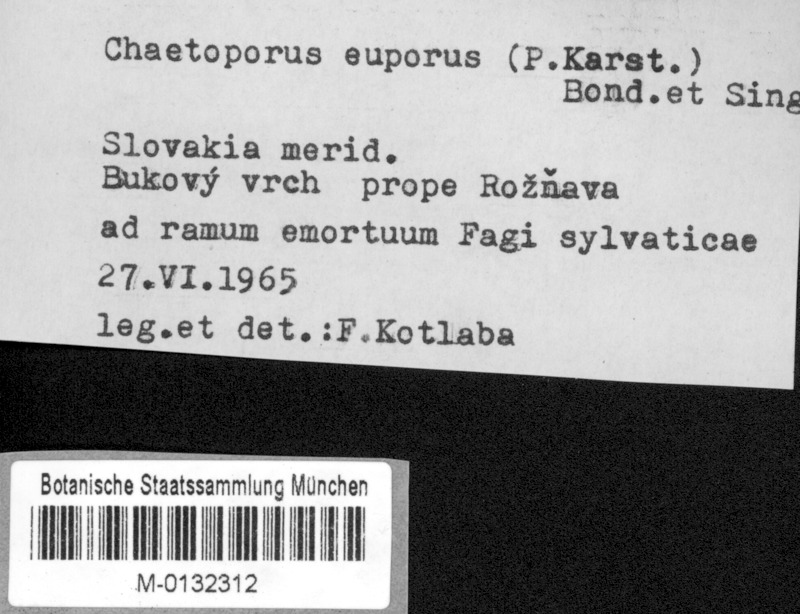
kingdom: Plantae
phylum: Tracheophyta
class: Magnoliopsida
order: Fagales
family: Fagaceae
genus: Fagus
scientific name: Fagus sylvatica
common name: Beech
